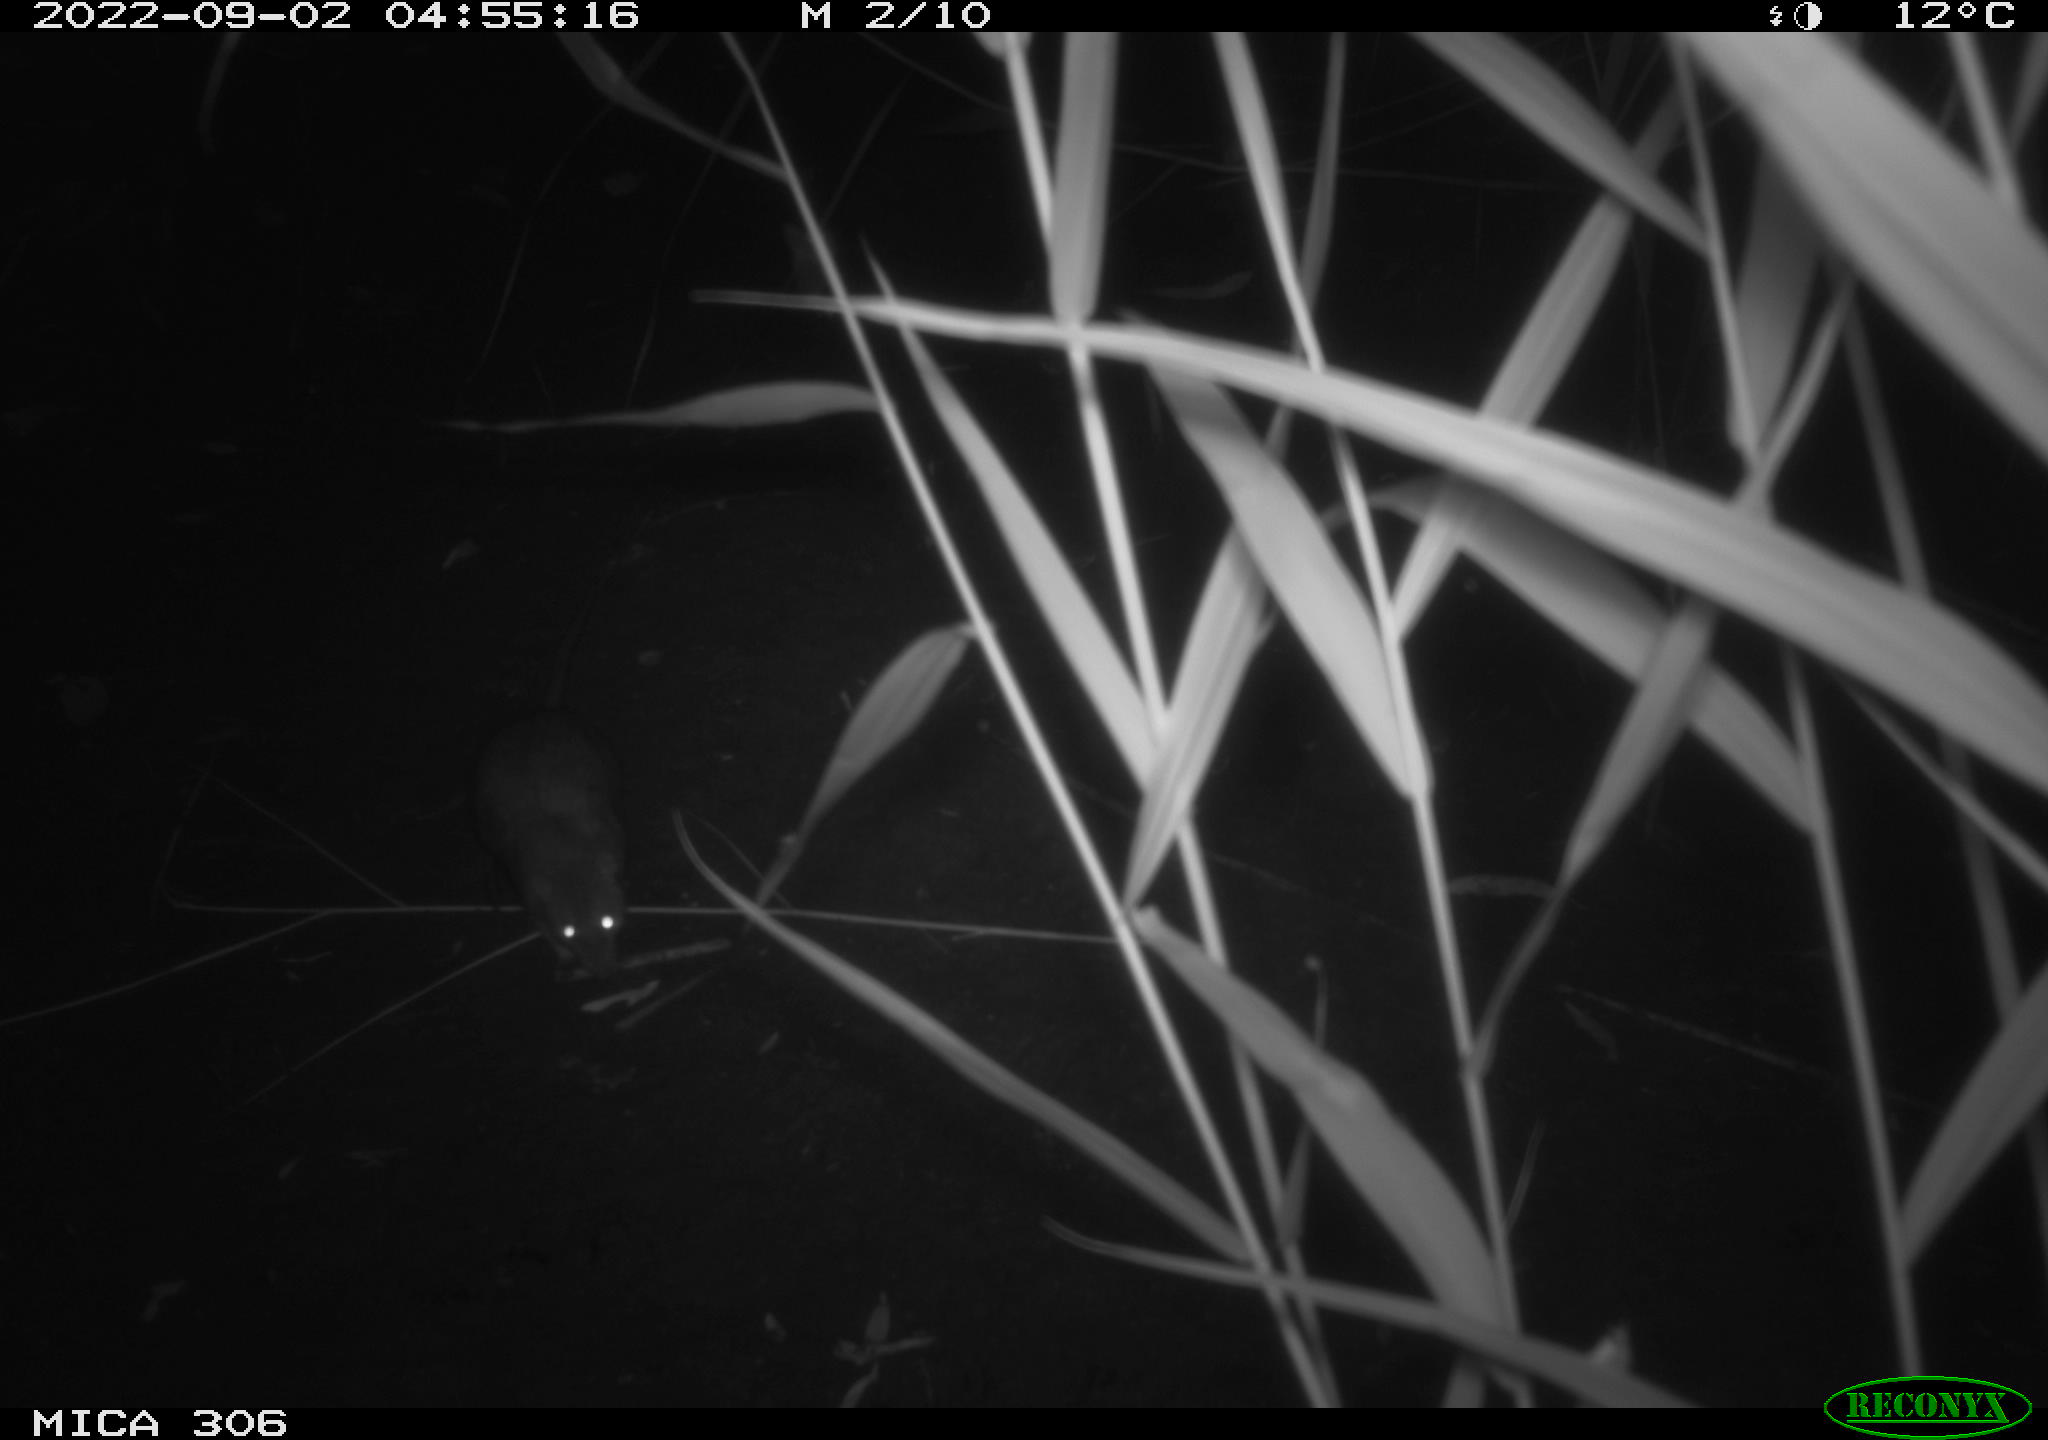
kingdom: Animalia
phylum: Chordata
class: Mammalia
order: Rodentia
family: Muridae
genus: Rattus
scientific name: Rattus norvegicus
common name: Brown rat
